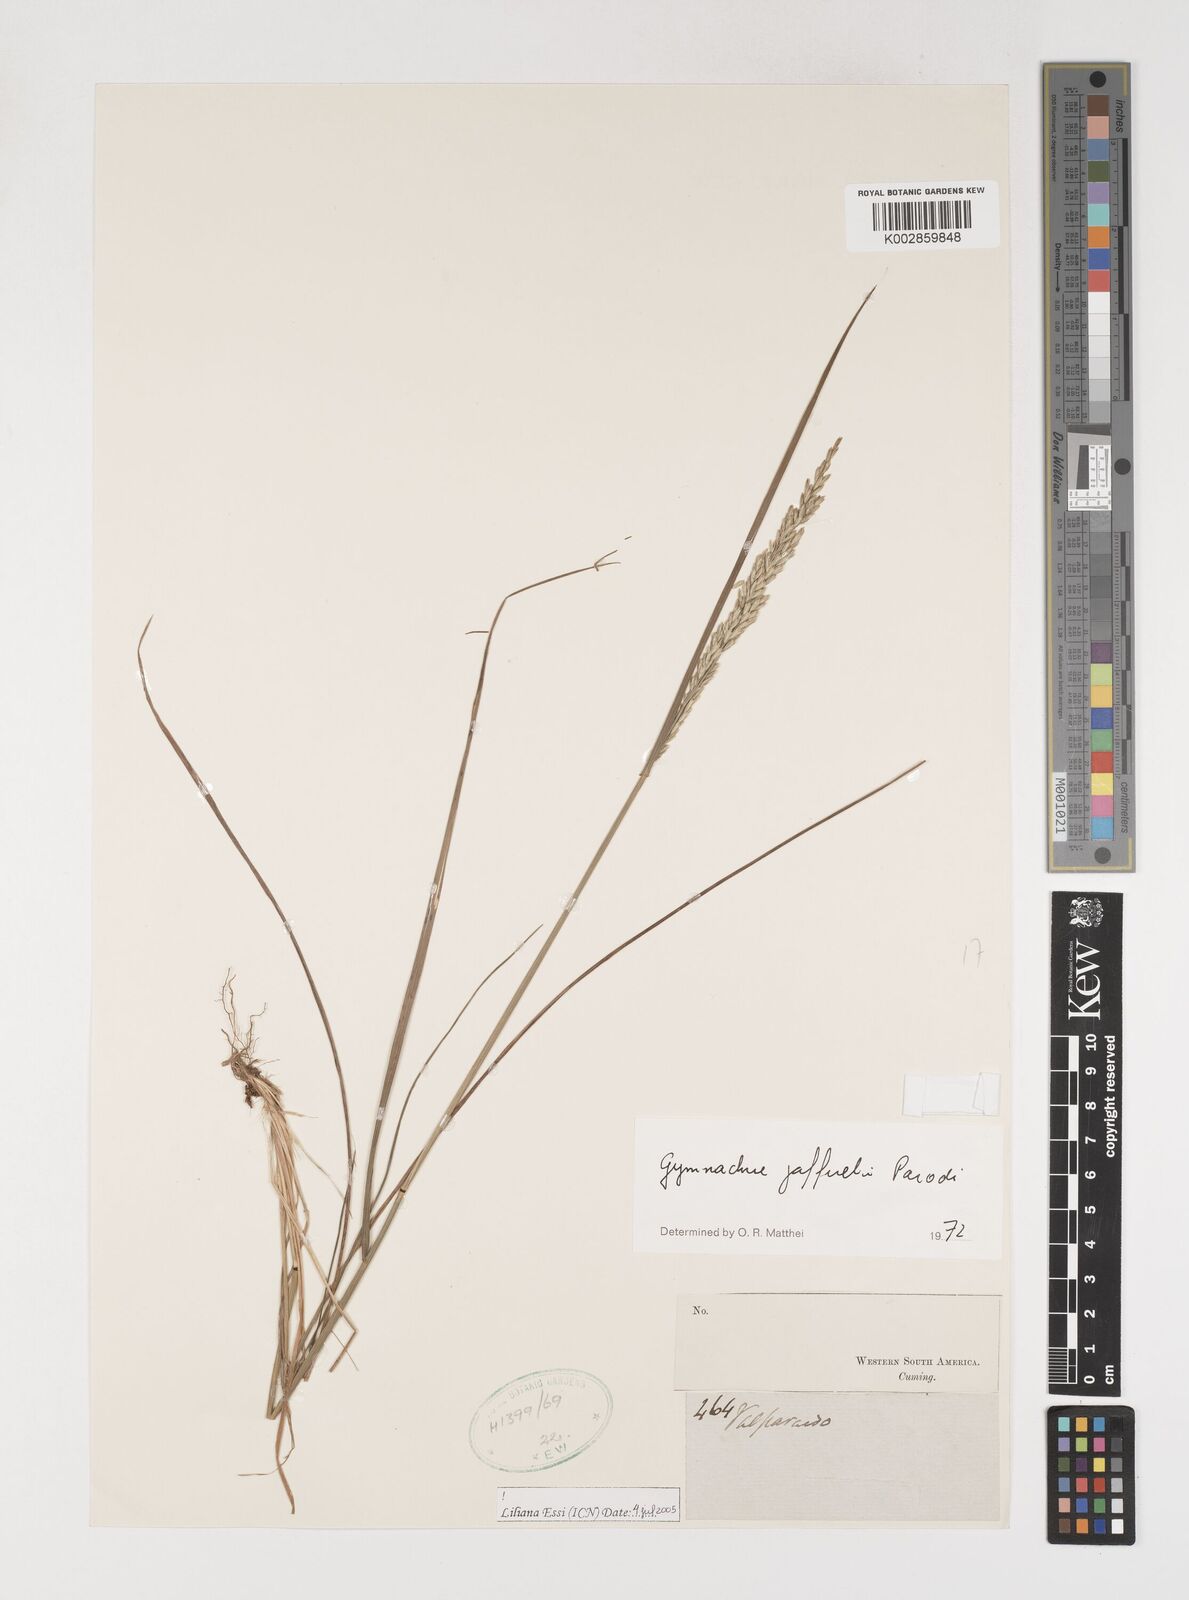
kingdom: Plantae
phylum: Tracheophyta
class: Liliopsida
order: Poales
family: Poaceae
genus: Rhombolytrum
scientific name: Rhombolytrum
